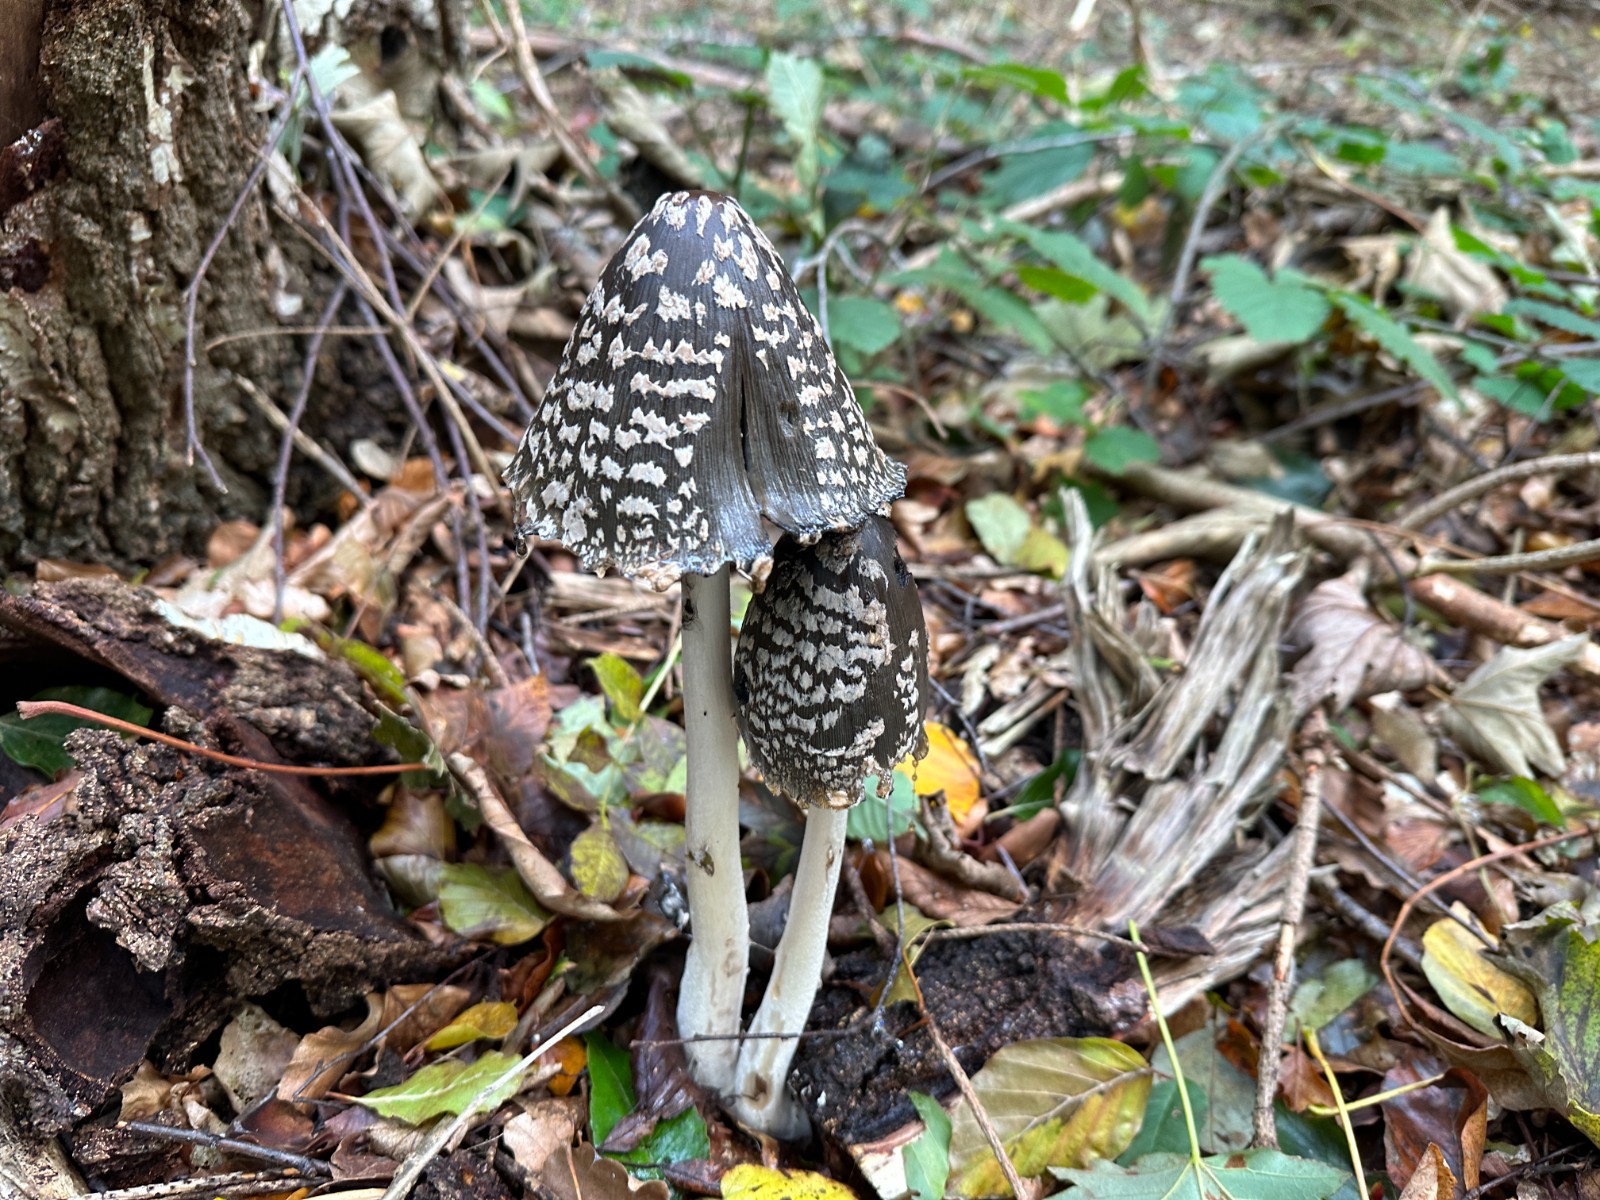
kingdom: Fungi
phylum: Basidiomycota
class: Agaricomycetes
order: Agaricales
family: Psathyrellaceae
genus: Coprinopsis
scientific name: Coprinopsis picacea
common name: skade-blækhat
